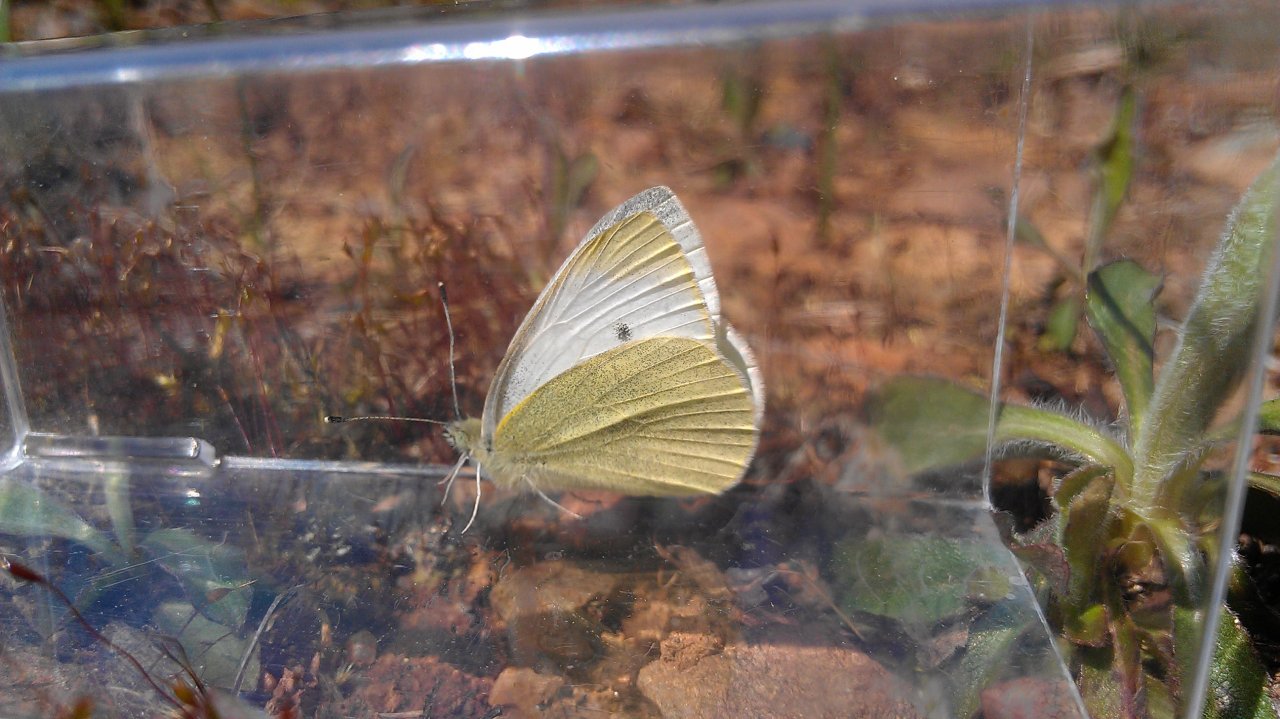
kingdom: Animalia
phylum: Arthropoda
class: Insecta
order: Lepidoptera
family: Pieridae
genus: Pieris
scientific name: Pieris rapae
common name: Cabbage White
